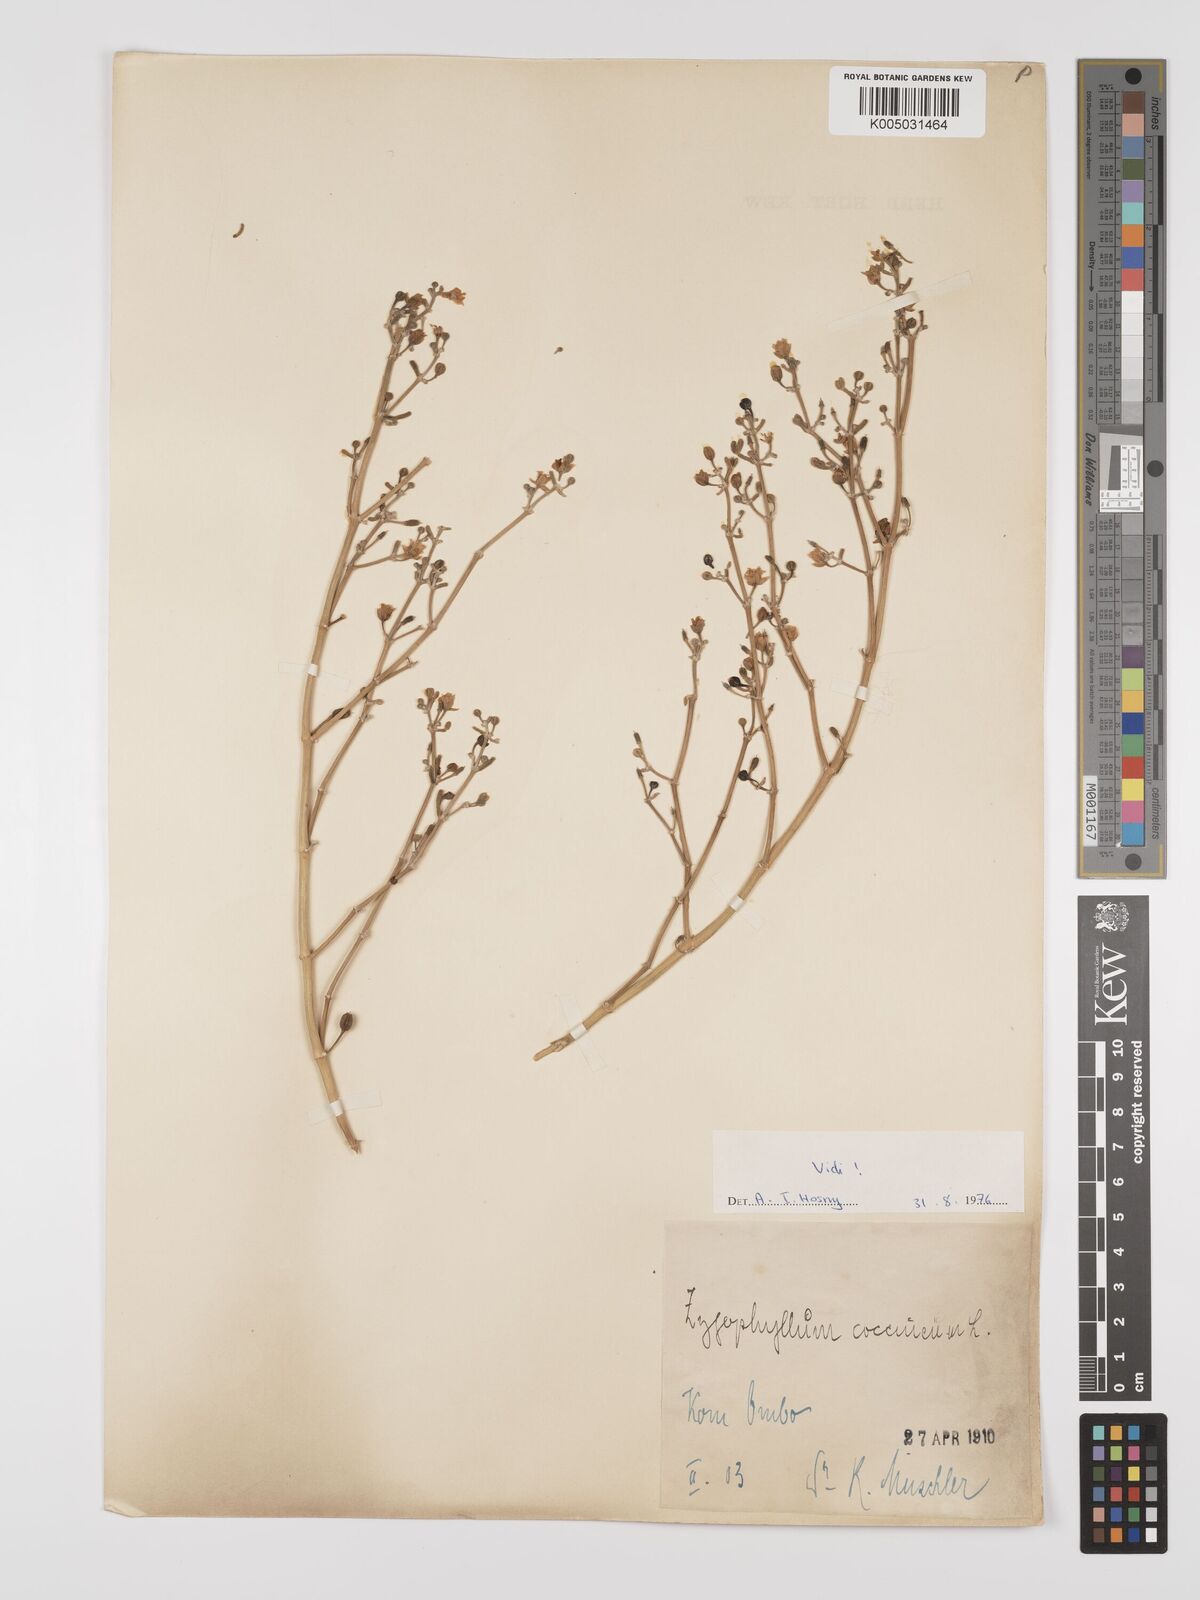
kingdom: Plantae
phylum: Tracheophyta
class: Magnoliopsida
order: Zygophyllales
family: Zygophyllaceae
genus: Tetraena
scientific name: Tetraena coccinea
